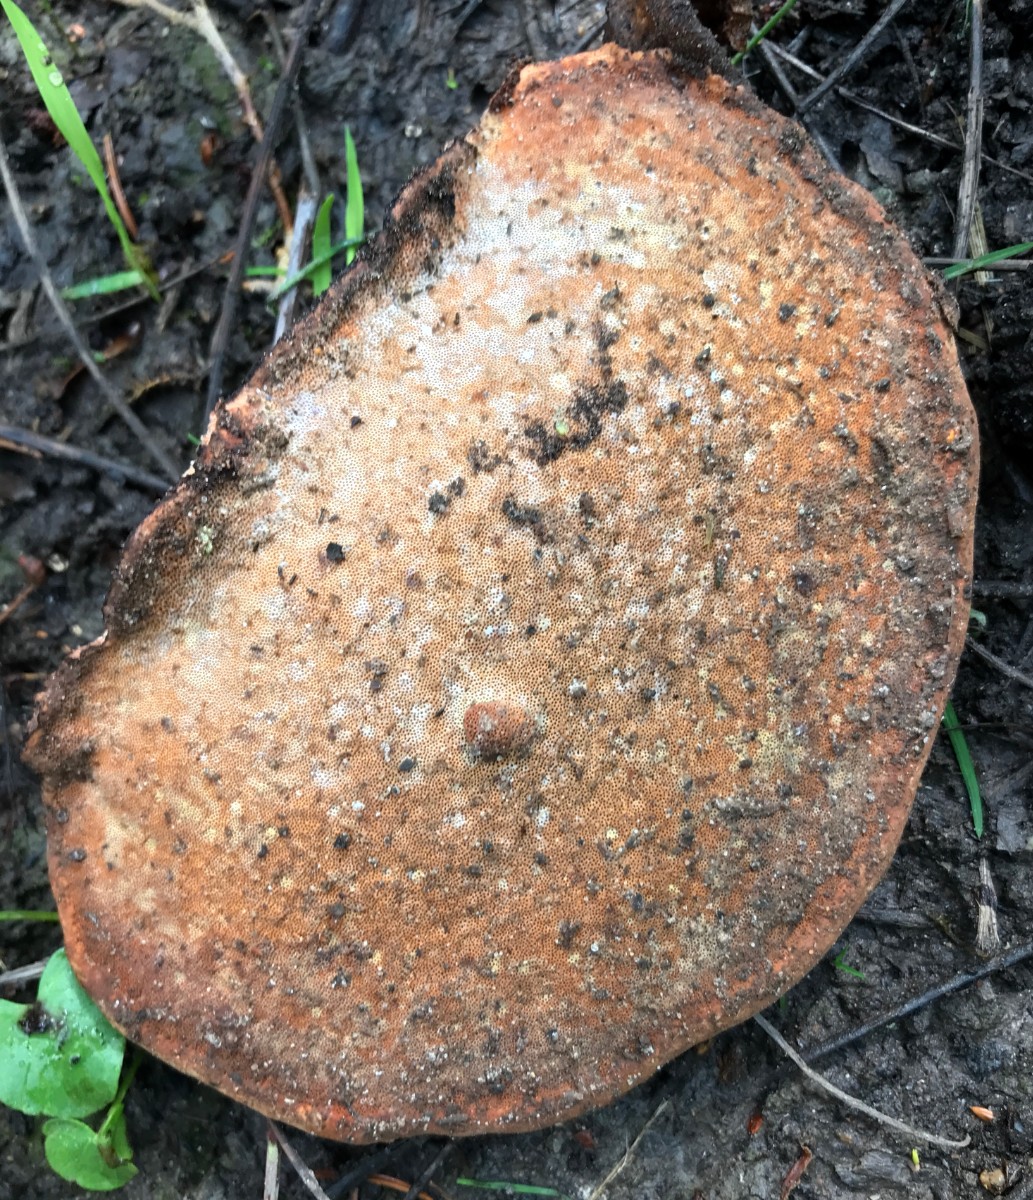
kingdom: Fungi
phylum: Basidiomycota
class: Agaricomycetes
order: Polyporales
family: Fomitopsidaceae
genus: Fomitopsis
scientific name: Fomitopsis pinicola
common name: randbæltet hovporesvamp
